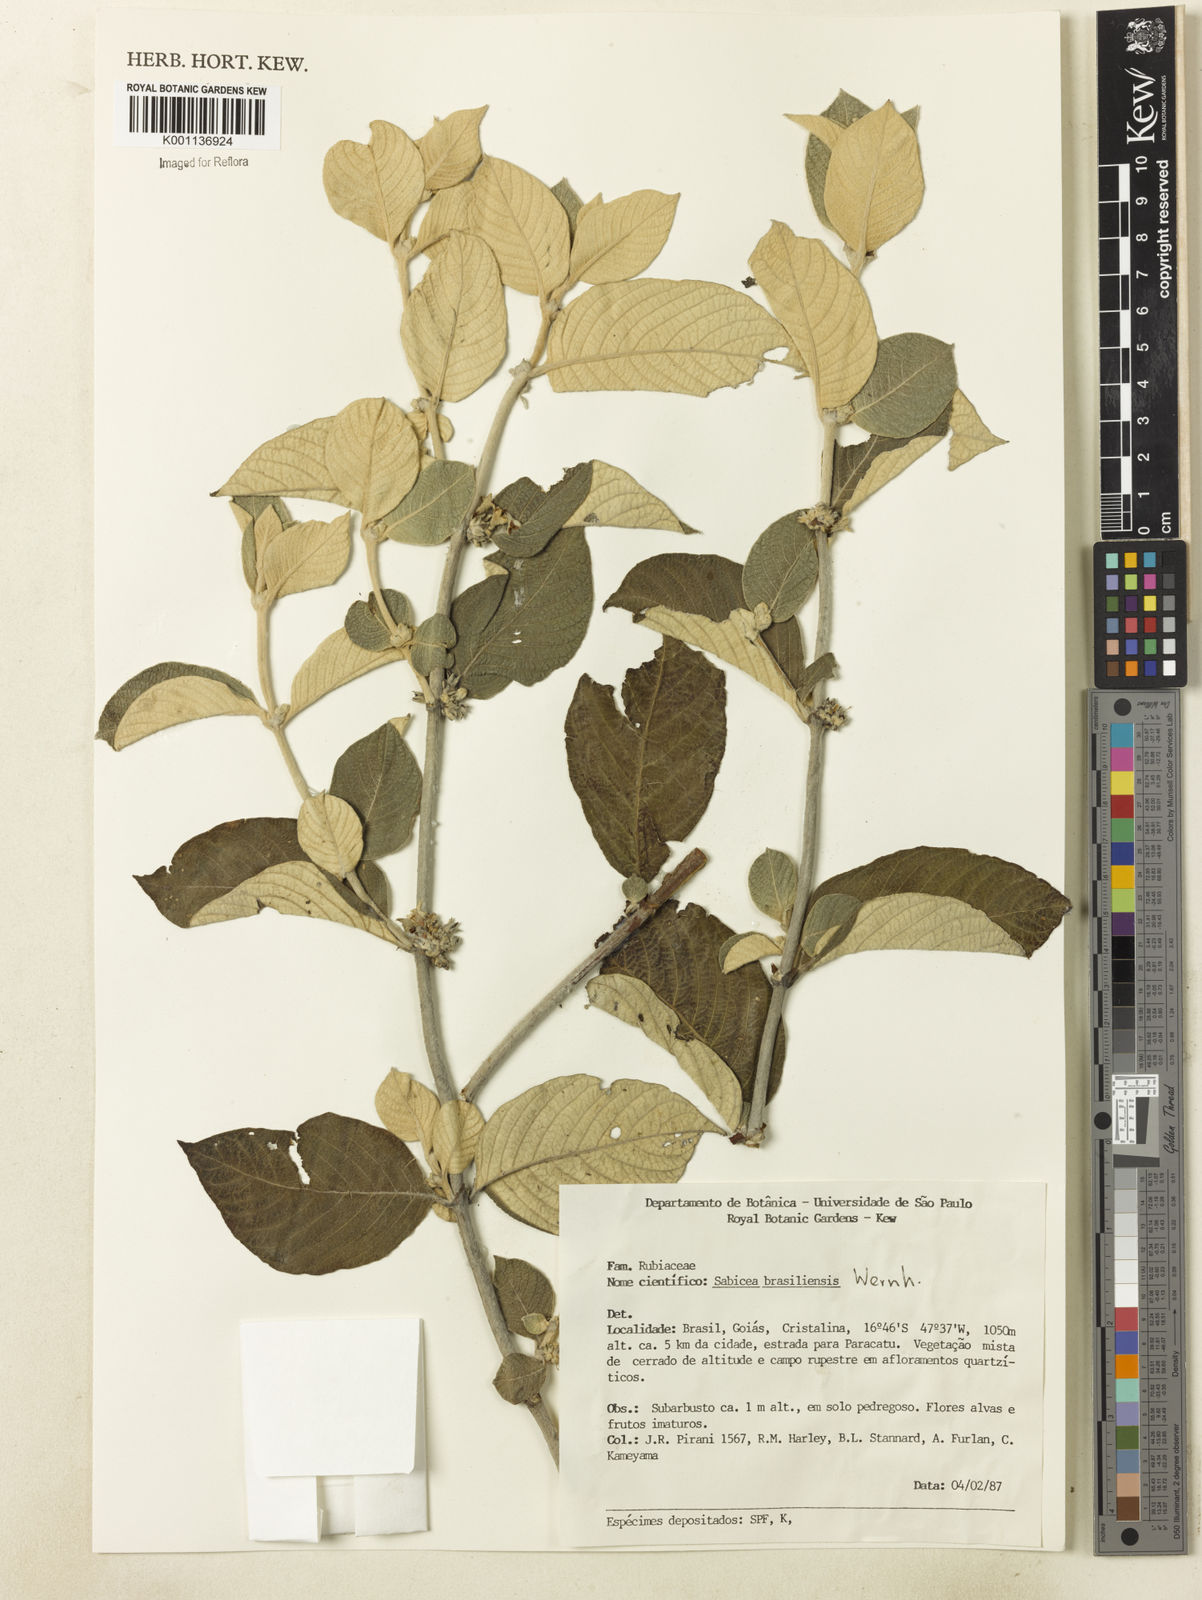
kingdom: Plantae
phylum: Tracheophyta
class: Magnoliopsida
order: Gentianales
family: Rubiaceae
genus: Sabicea
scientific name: Sabicea brasiliensis
